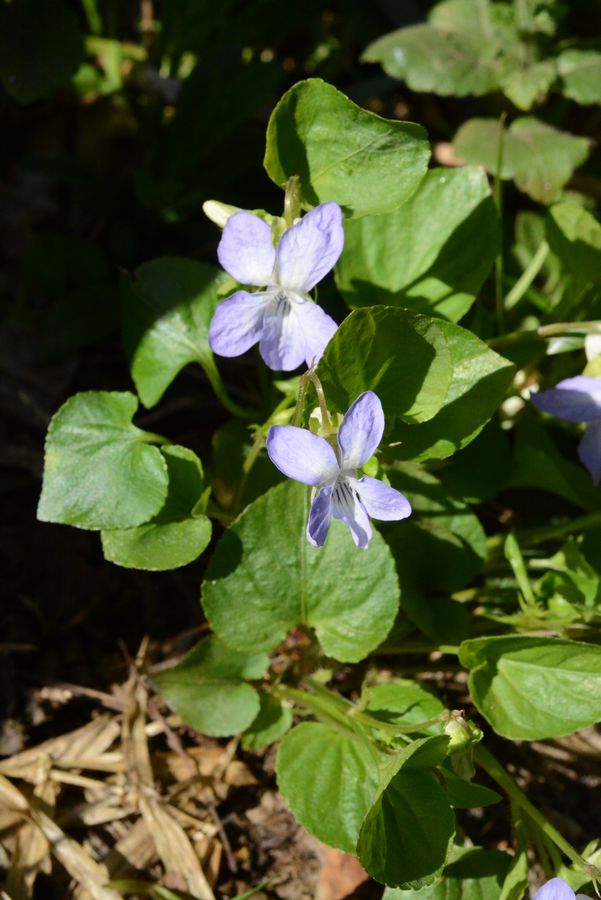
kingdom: Plantae
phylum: Tracheophyta
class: Magnoliopsida
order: Malpighiales
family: Violaceae
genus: Viola
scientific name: Viola mirabilis
